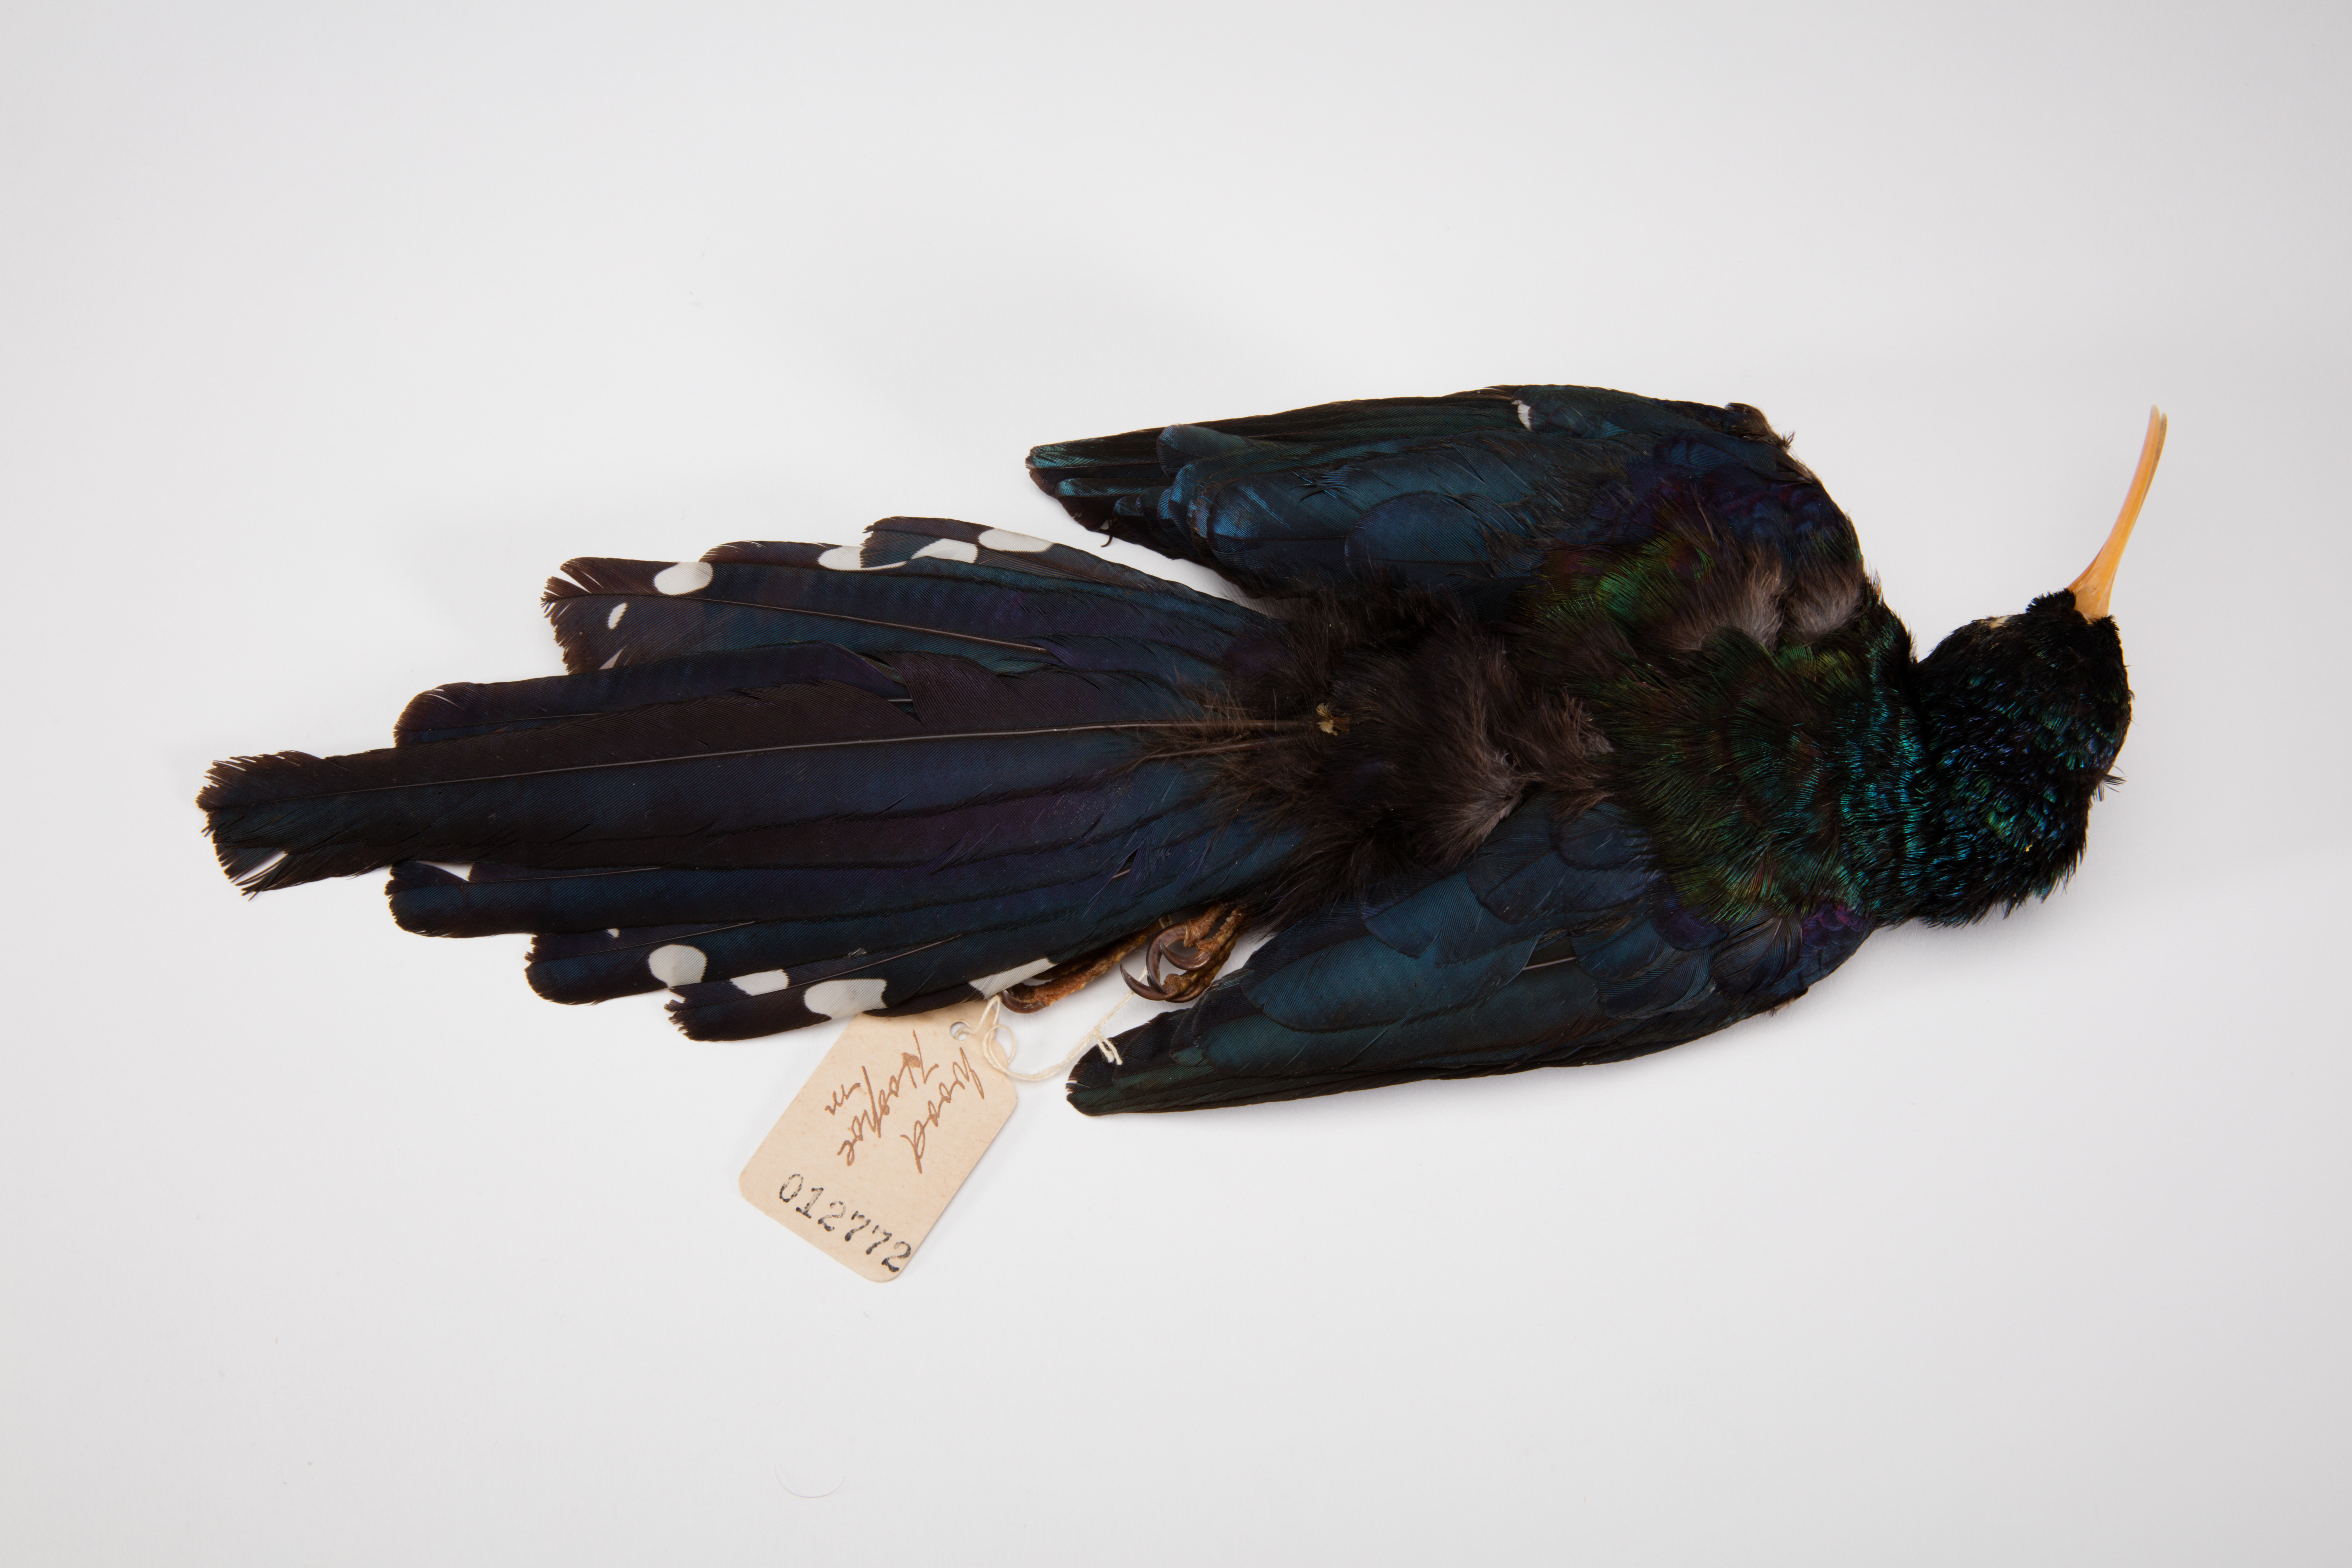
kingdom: Animalia
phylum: Chordata
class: Aves
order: Bucerotiformes
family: Phoeniculidae
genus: Phoeniculus
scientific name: Phoeniculus purpureus
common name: Green woodhoopoe
